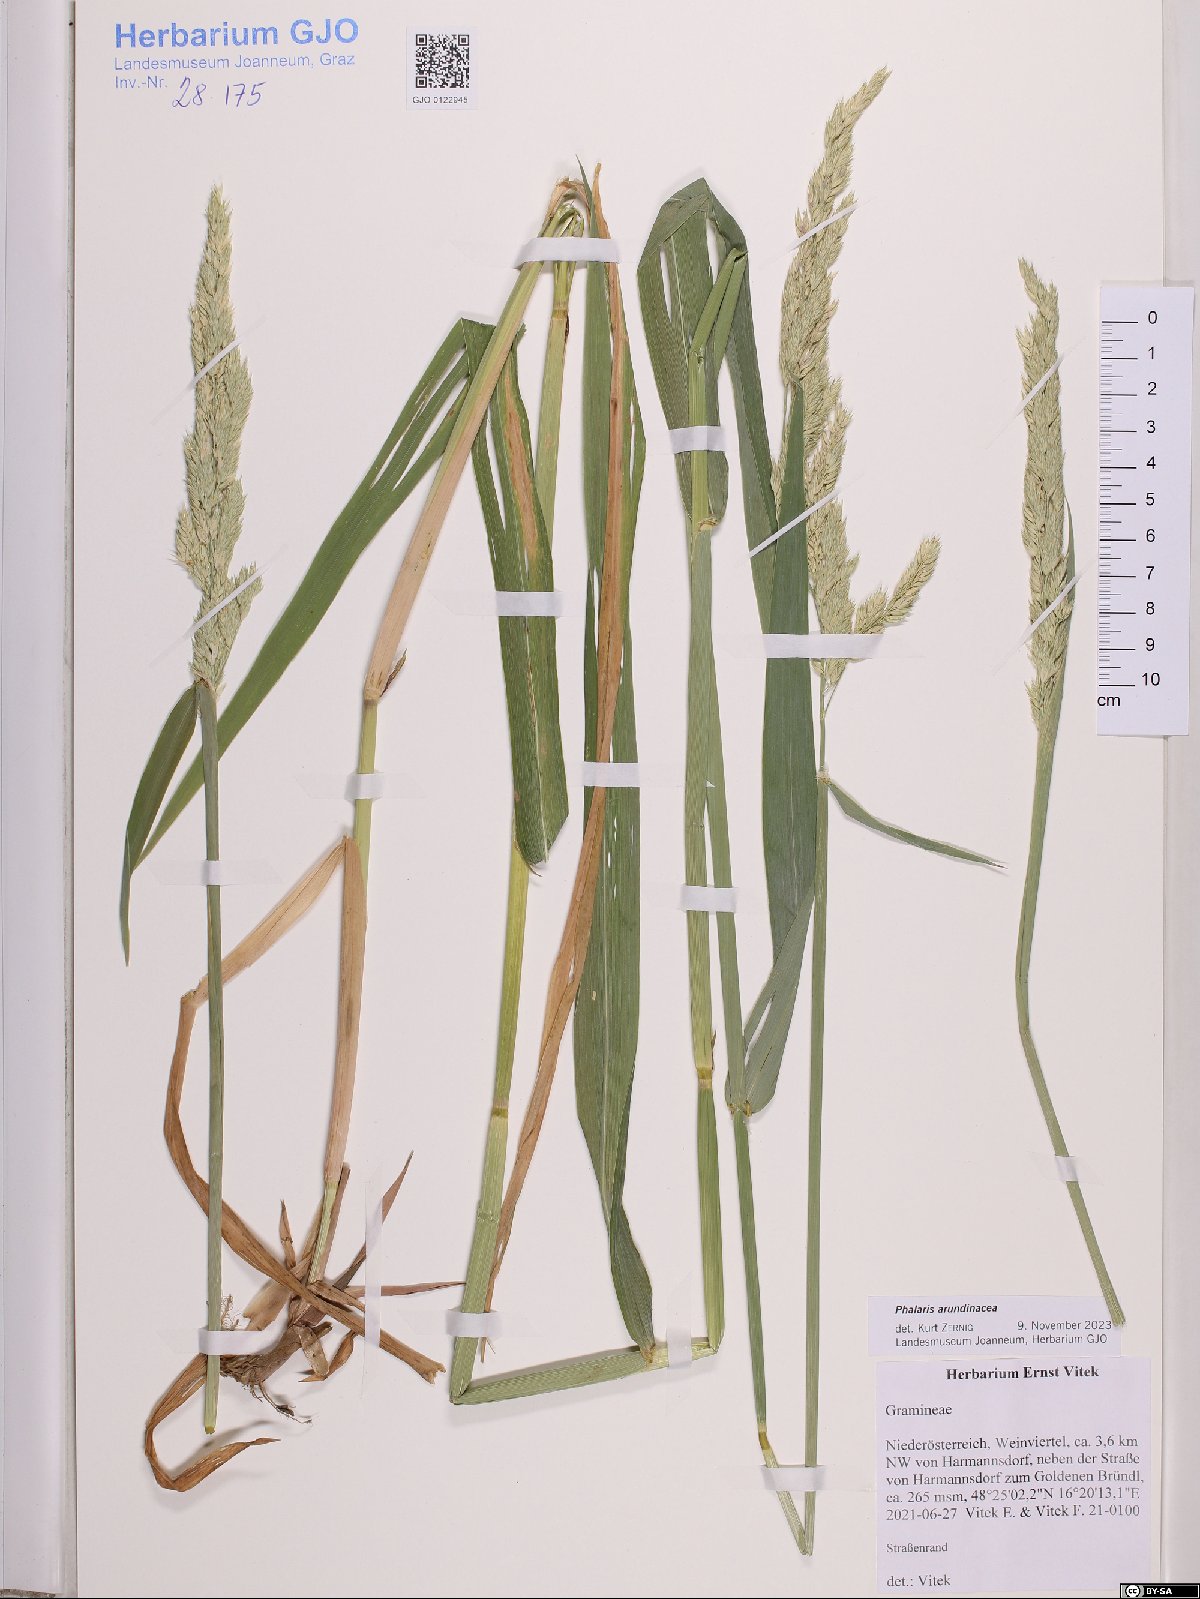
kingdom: Plantae
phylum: Tracheophyta
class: Liliopsida
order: Poales
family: Poaceae
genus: Phalaris
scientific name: Phalaris arundinacea
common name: Reed canary-grass
